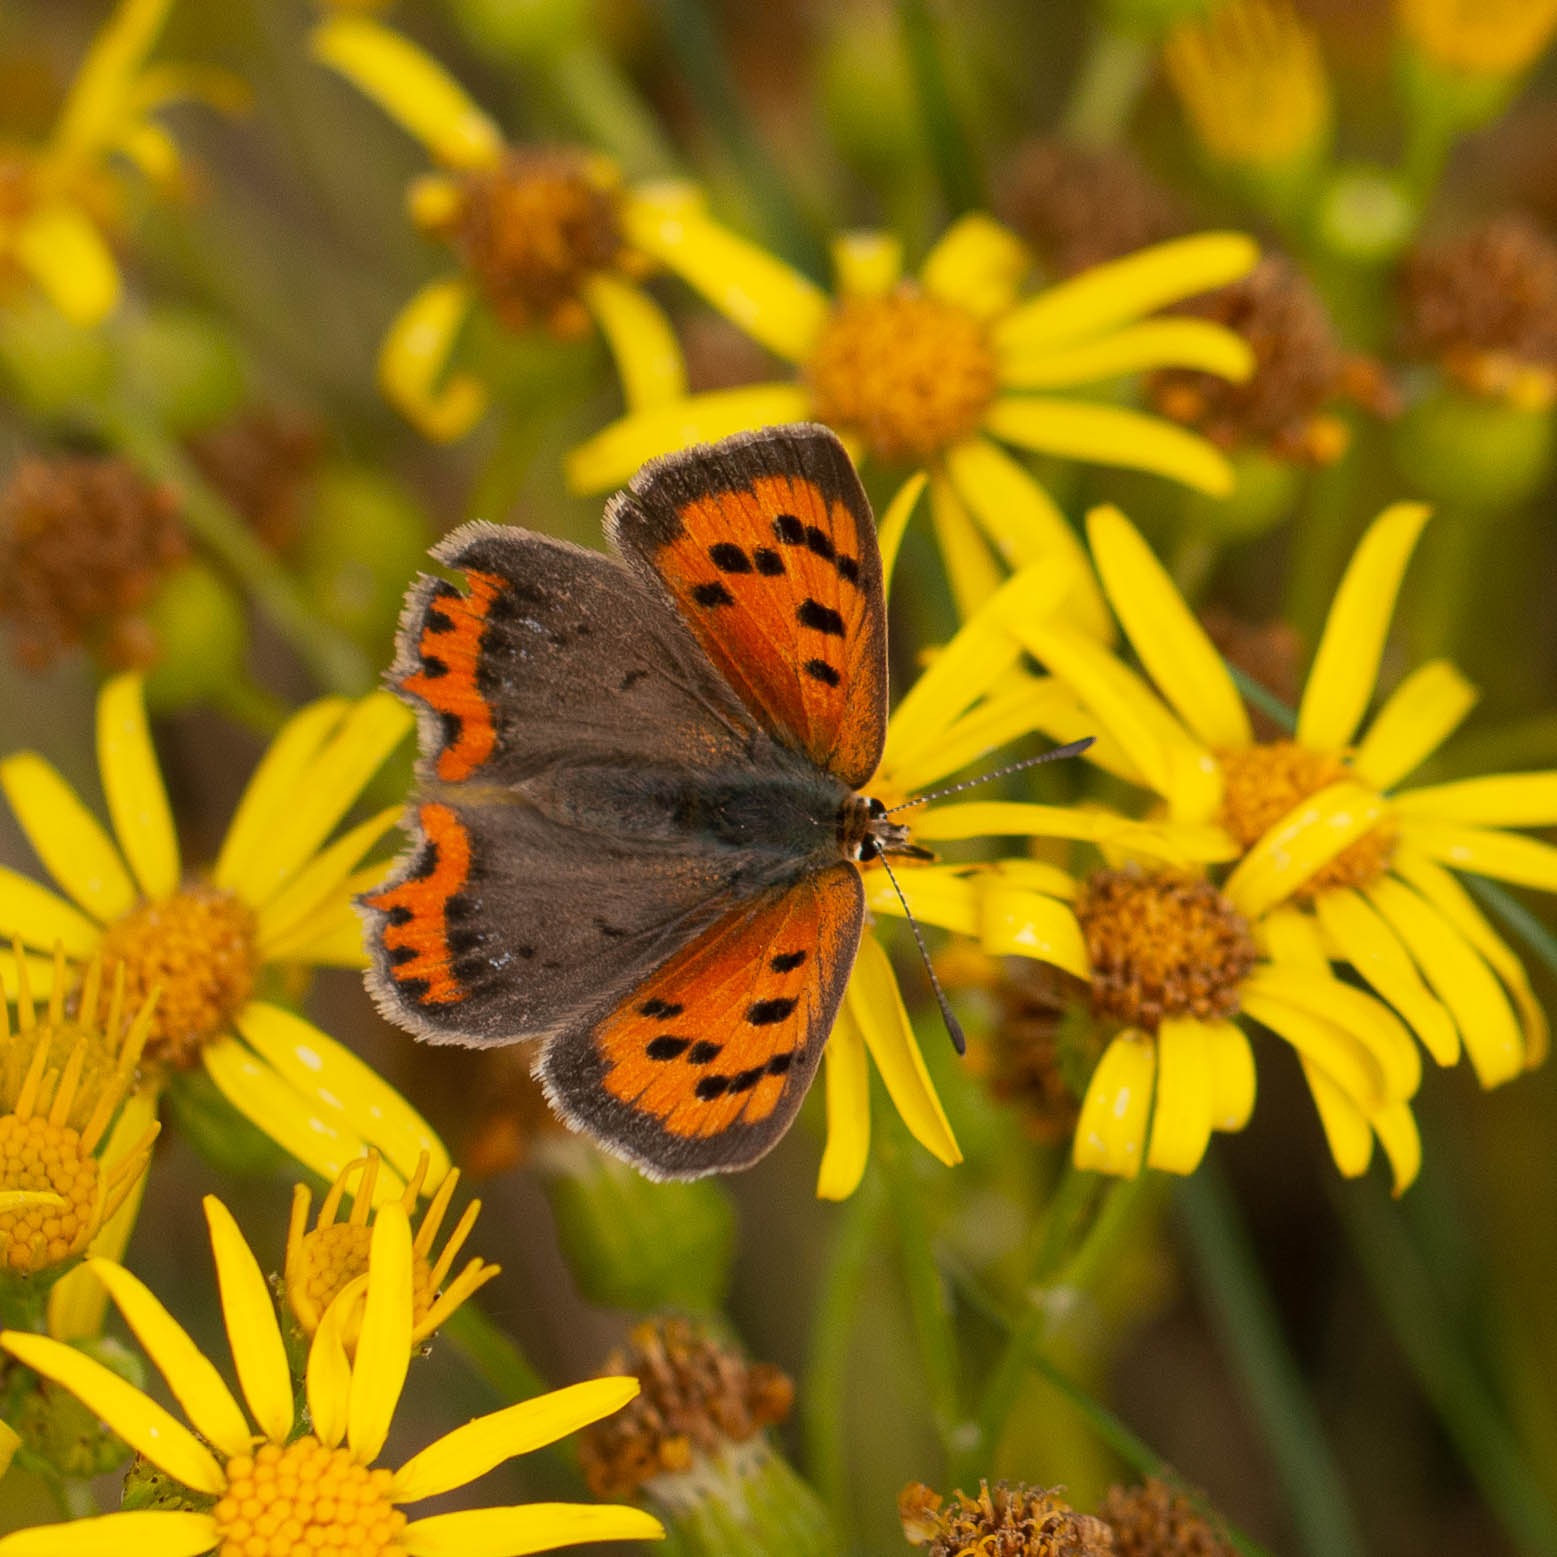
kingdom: Animalia
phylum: Arthropoda
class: Insecta
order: Lepidoptera
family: Lycaenidae
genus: Lycaena
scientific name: Lycaena phlaeas
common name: Lille ildfugl
